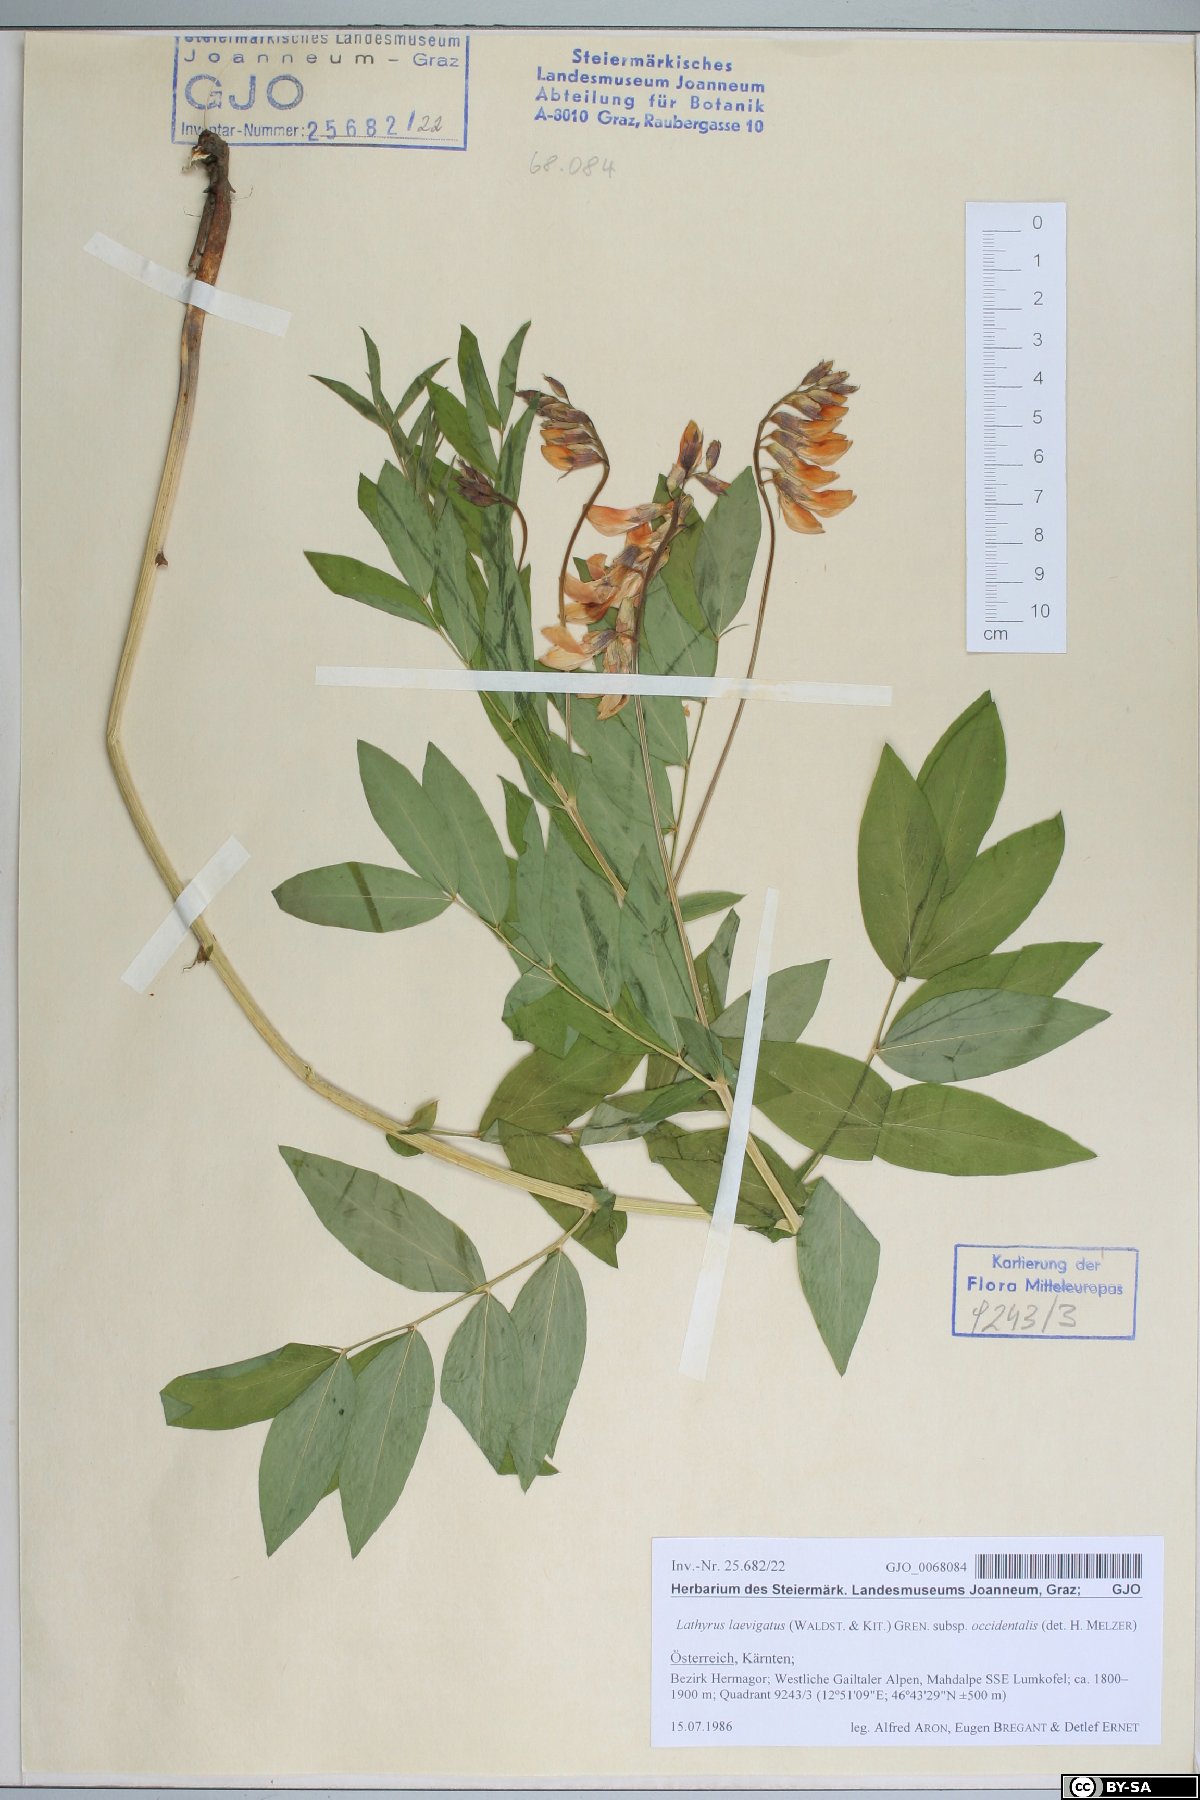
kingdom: Plantae
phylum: Tracheophyta
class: Magnoliopsida
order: Fabales
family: Fabaceae
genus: Lathyrus
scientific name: Lathyrus laevigatus
